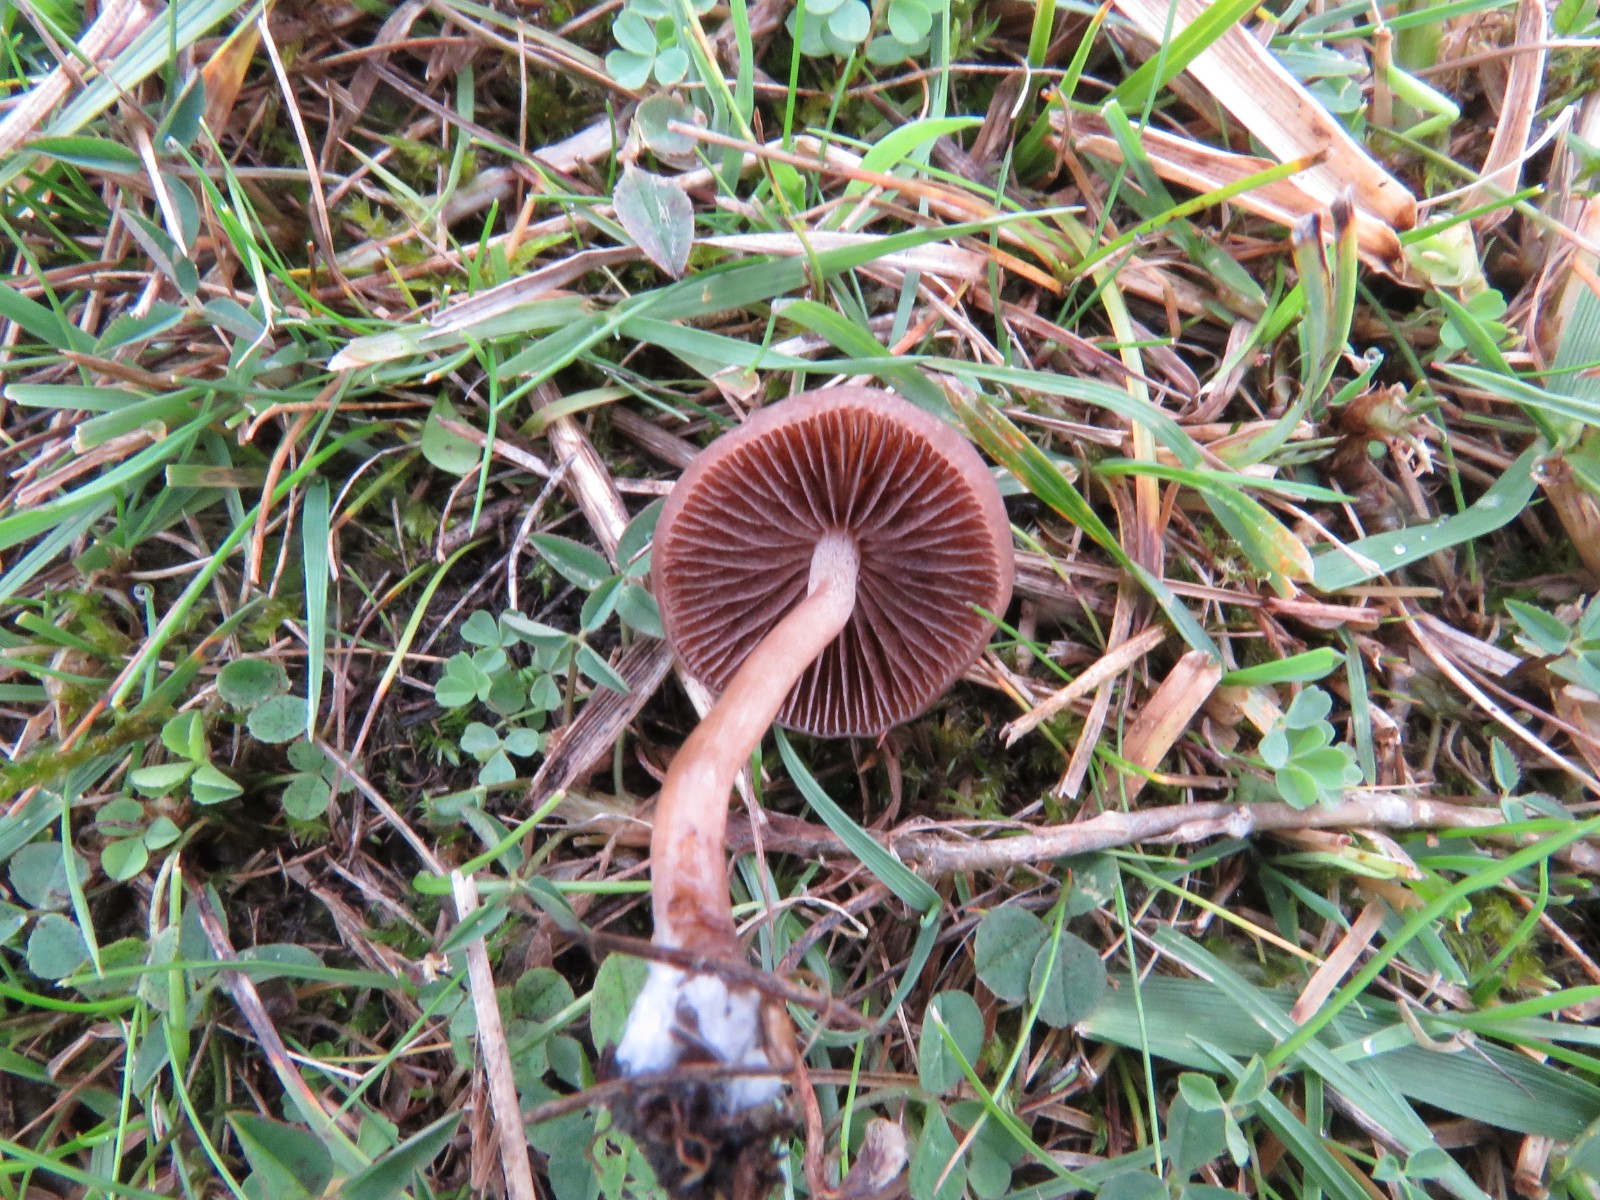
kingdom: Fungi
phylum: Basidiomycota
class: Agaricomycetes
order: Agaricales
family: Bolbitiaceae
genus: Panaeolina
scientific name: Panaeolina foenisecii
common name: høslætsvamp
